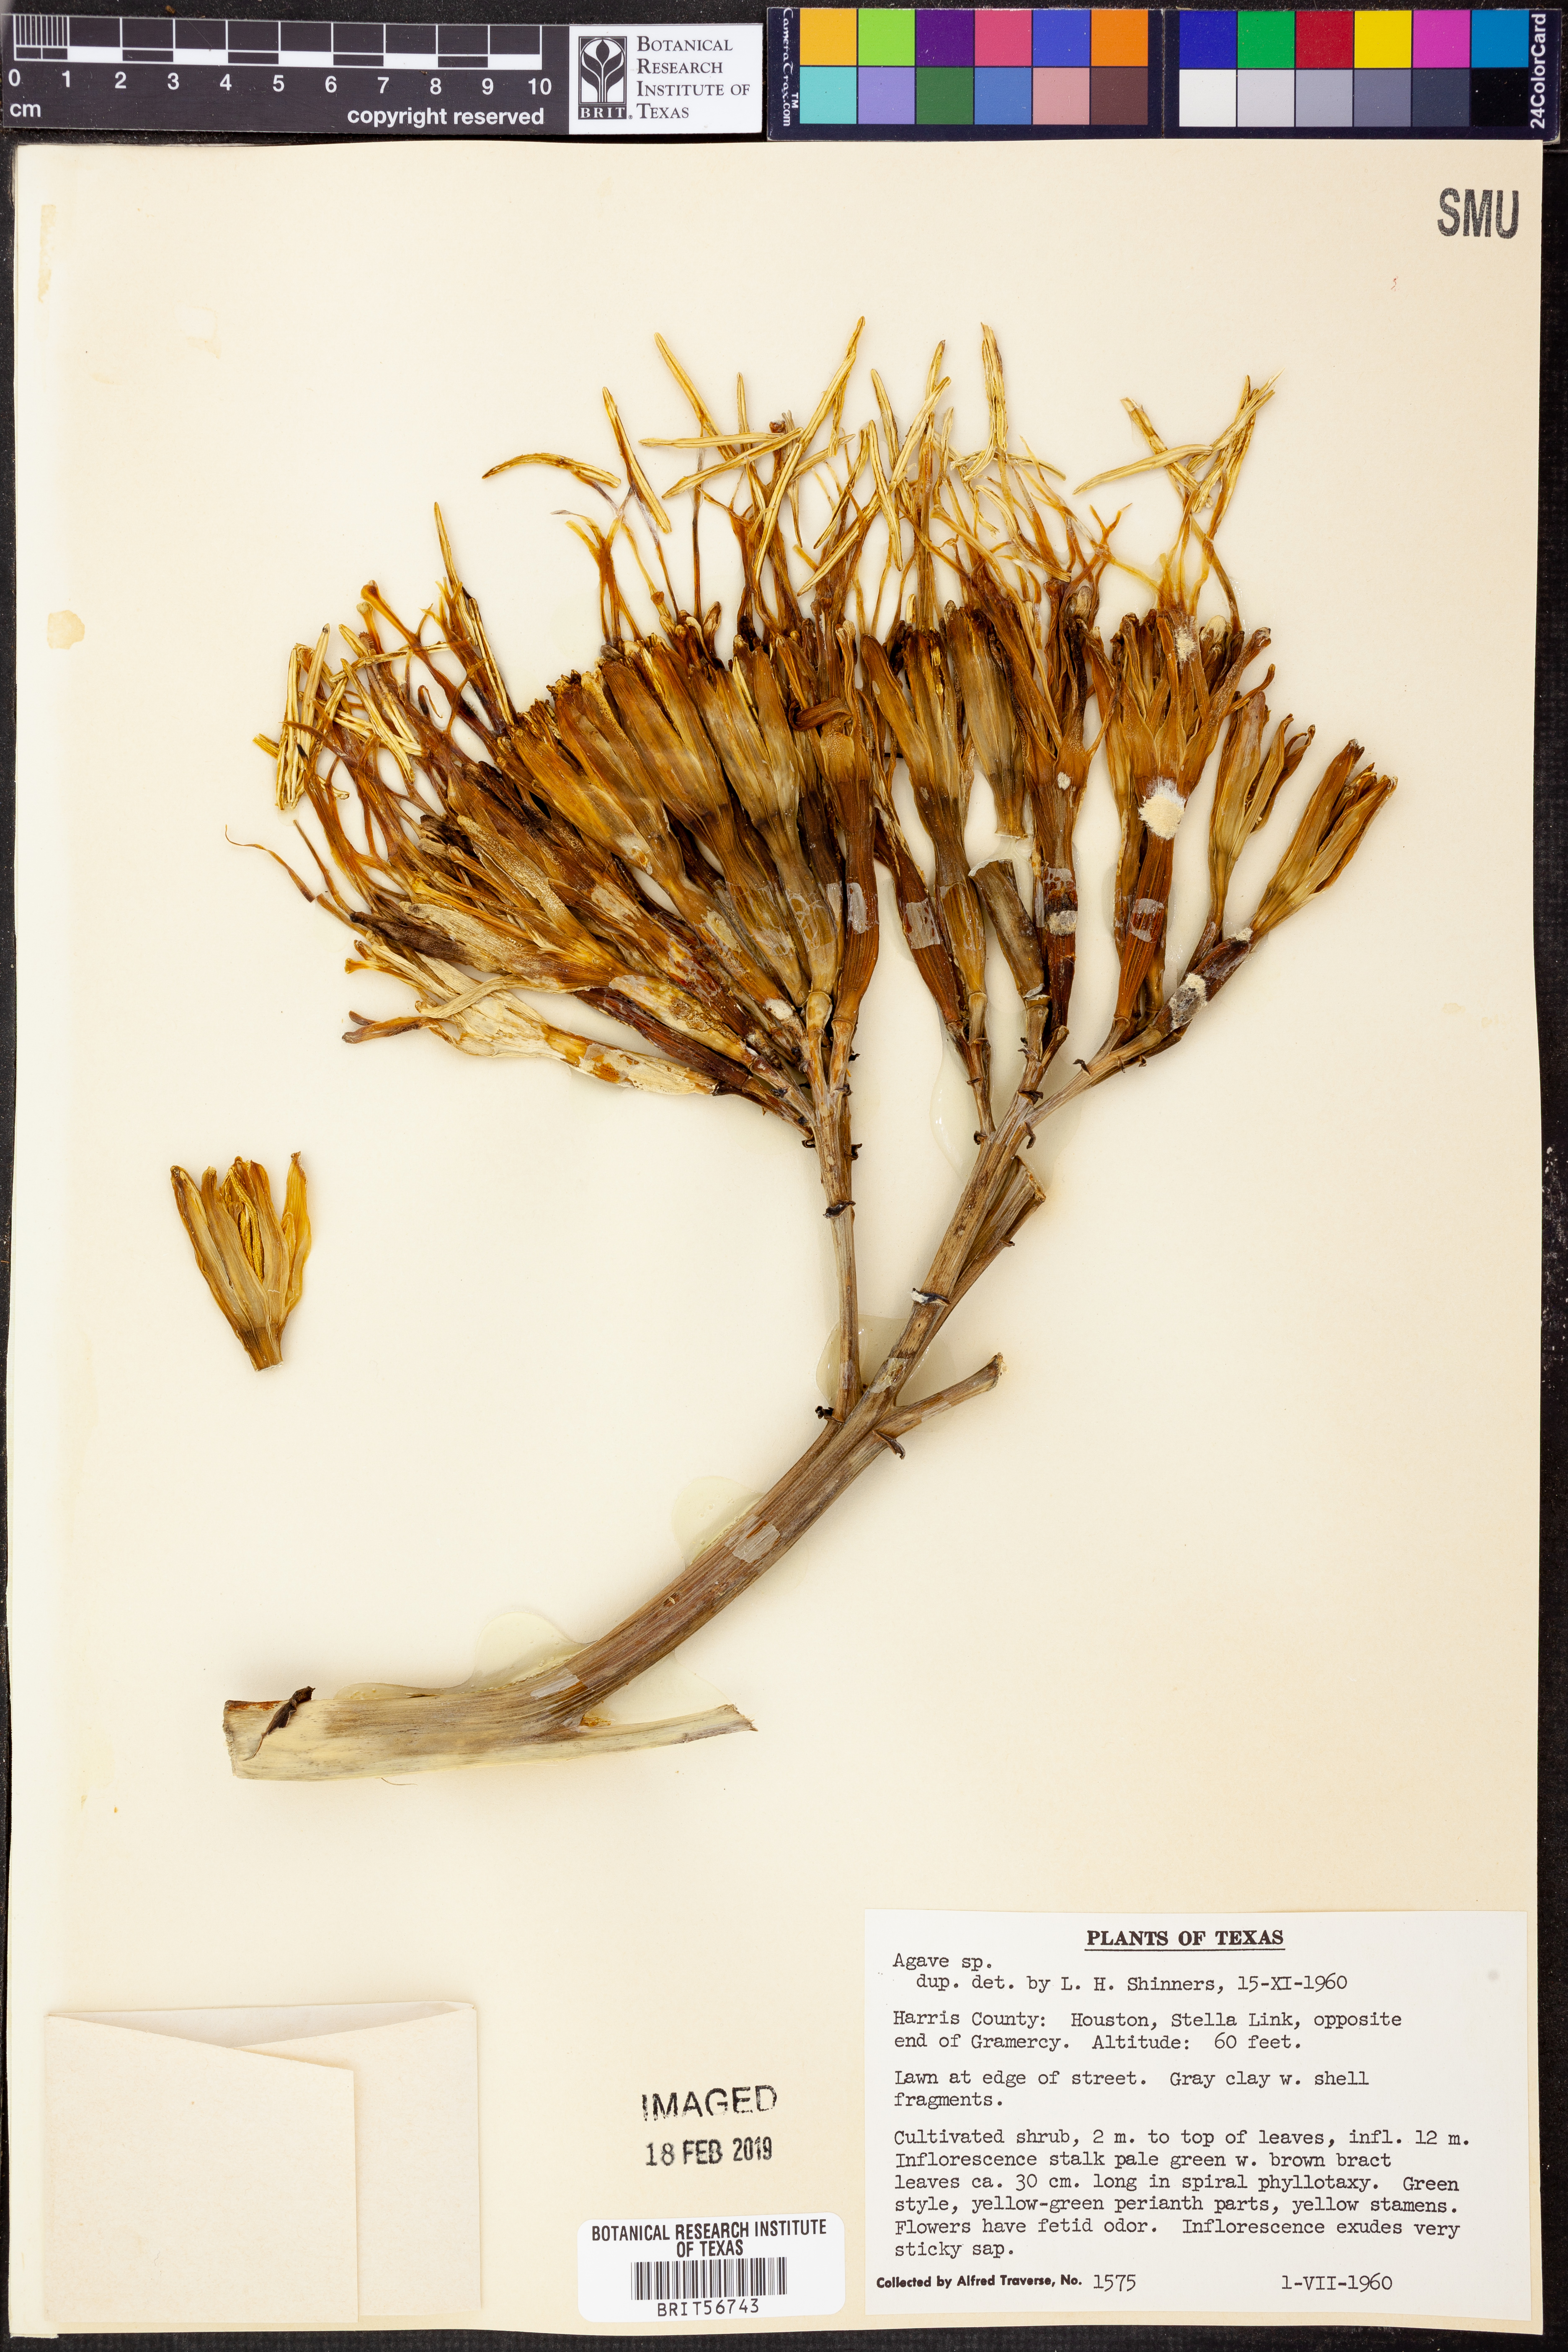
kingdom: Plantae
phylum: Tracheophyta
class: Liliopsida
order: Asparagales
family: Asparagaceae
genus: Agave
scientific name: Agave
